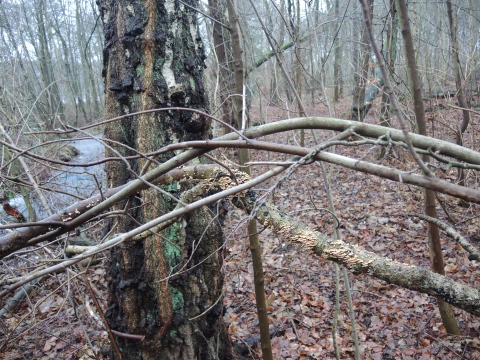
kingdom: Fungi
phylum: Basidiomycota
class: Agaricomycetes
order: Amylocorticiales
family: Amylocorticiaceae
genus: Plicaturopsis
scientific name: Plicaturopsis crispa
